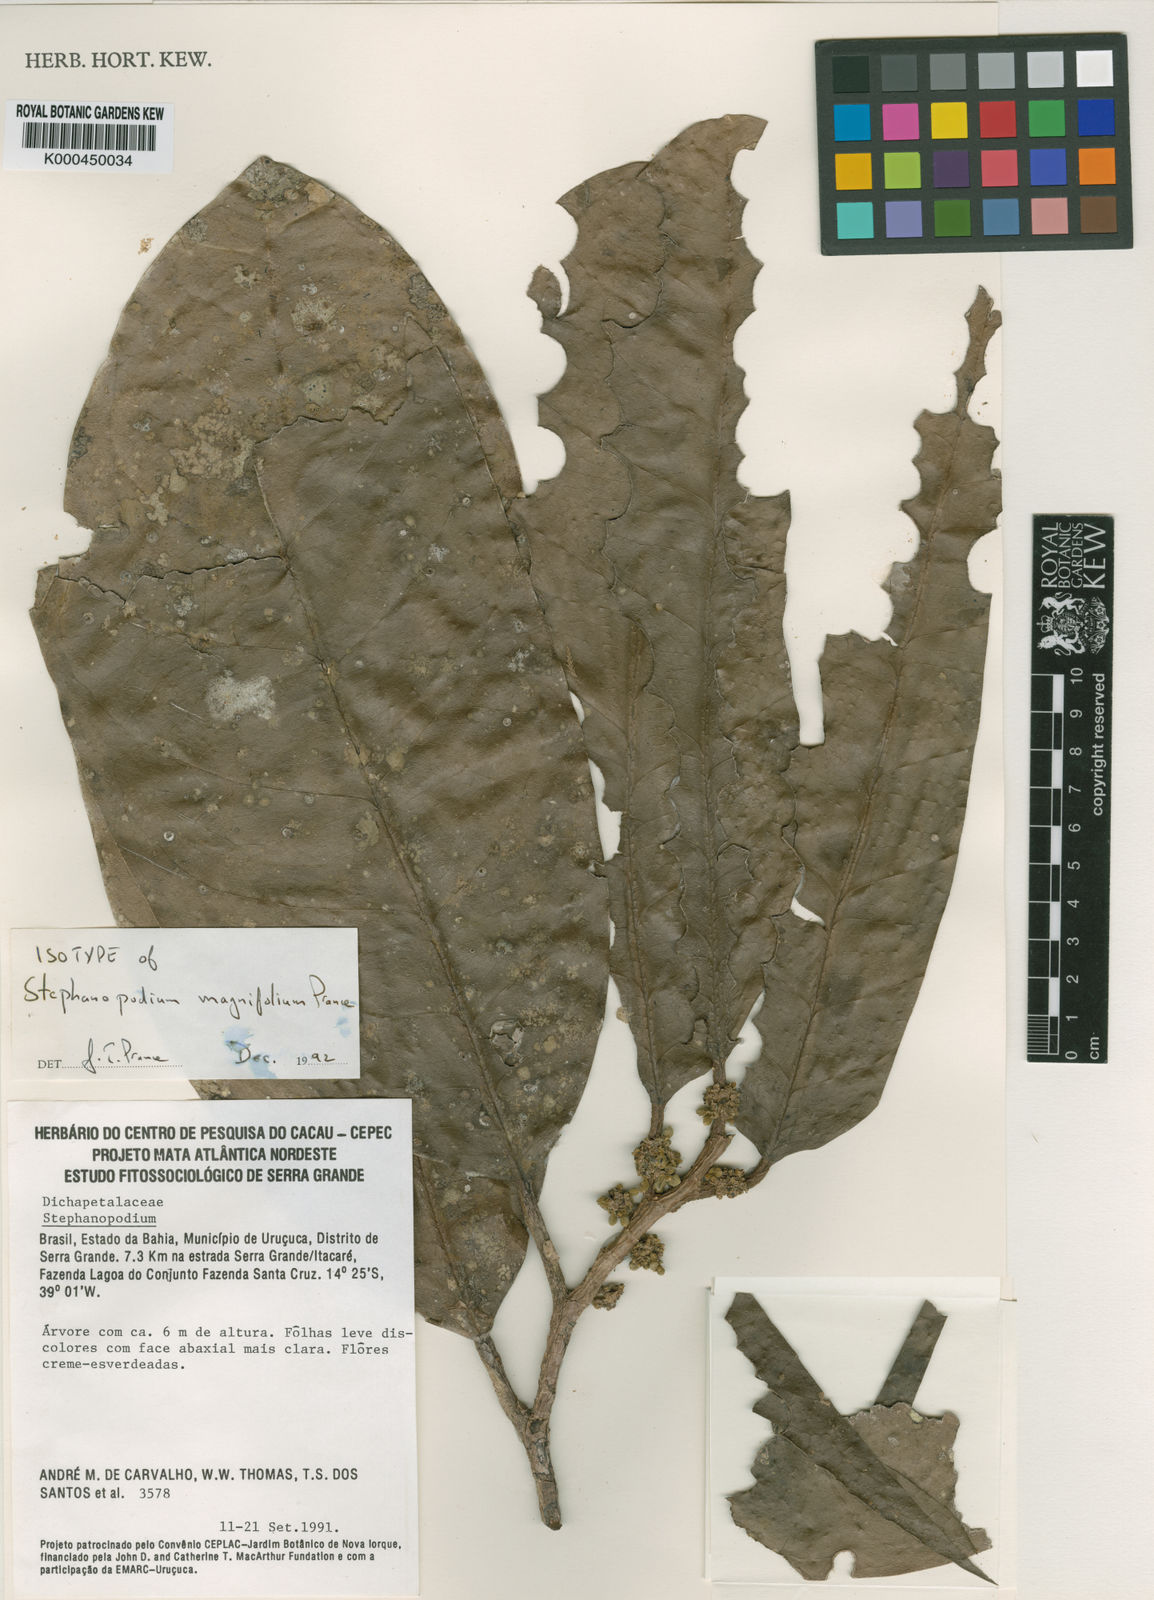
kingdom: Plantae
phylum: Tracheophyta
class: Magnoliopsida
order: Malpighiales
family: Dichapetalaceae
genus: Stephanopodium
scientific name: Stephanopodium magnifolium
